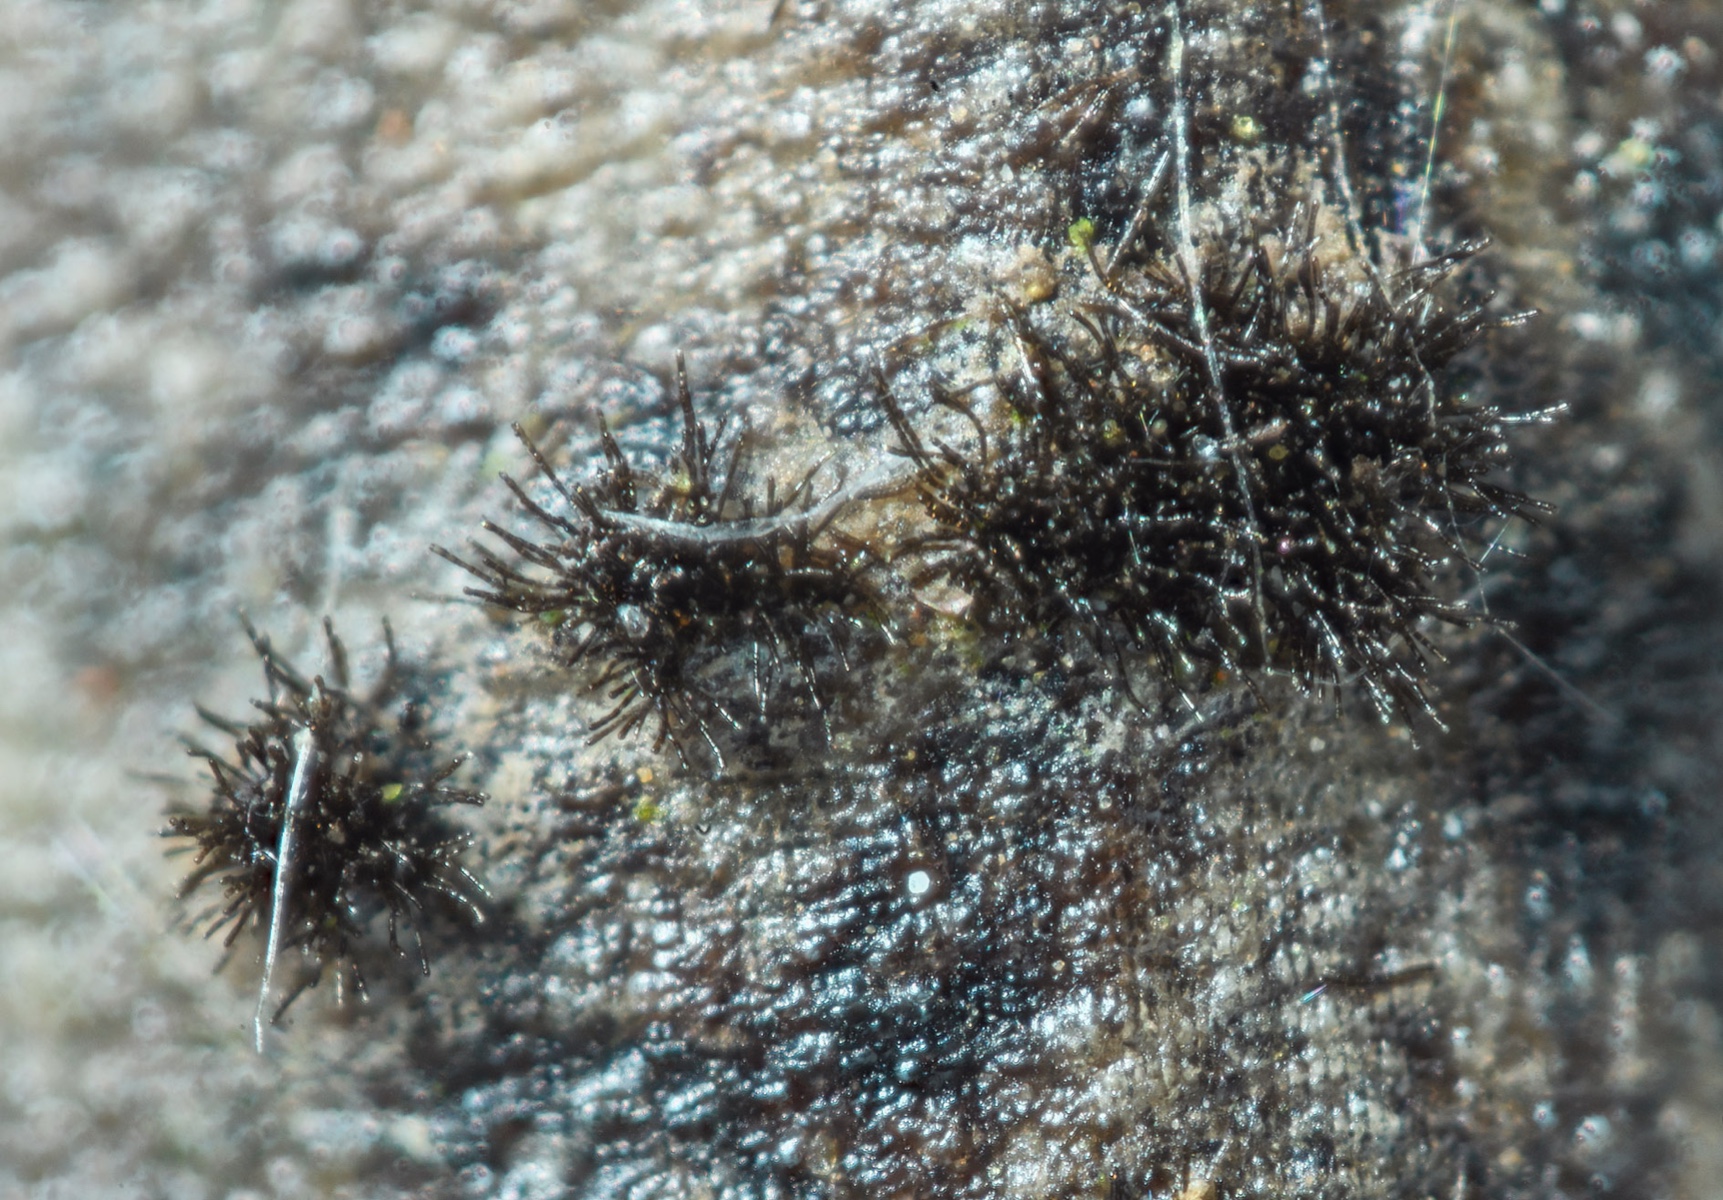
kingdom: Fungi
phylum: Ascomycota
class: Dothideomycetes
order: Pleosporales
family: Corynesporascaceae
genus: Corynespora
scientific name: Corynespora smithii
